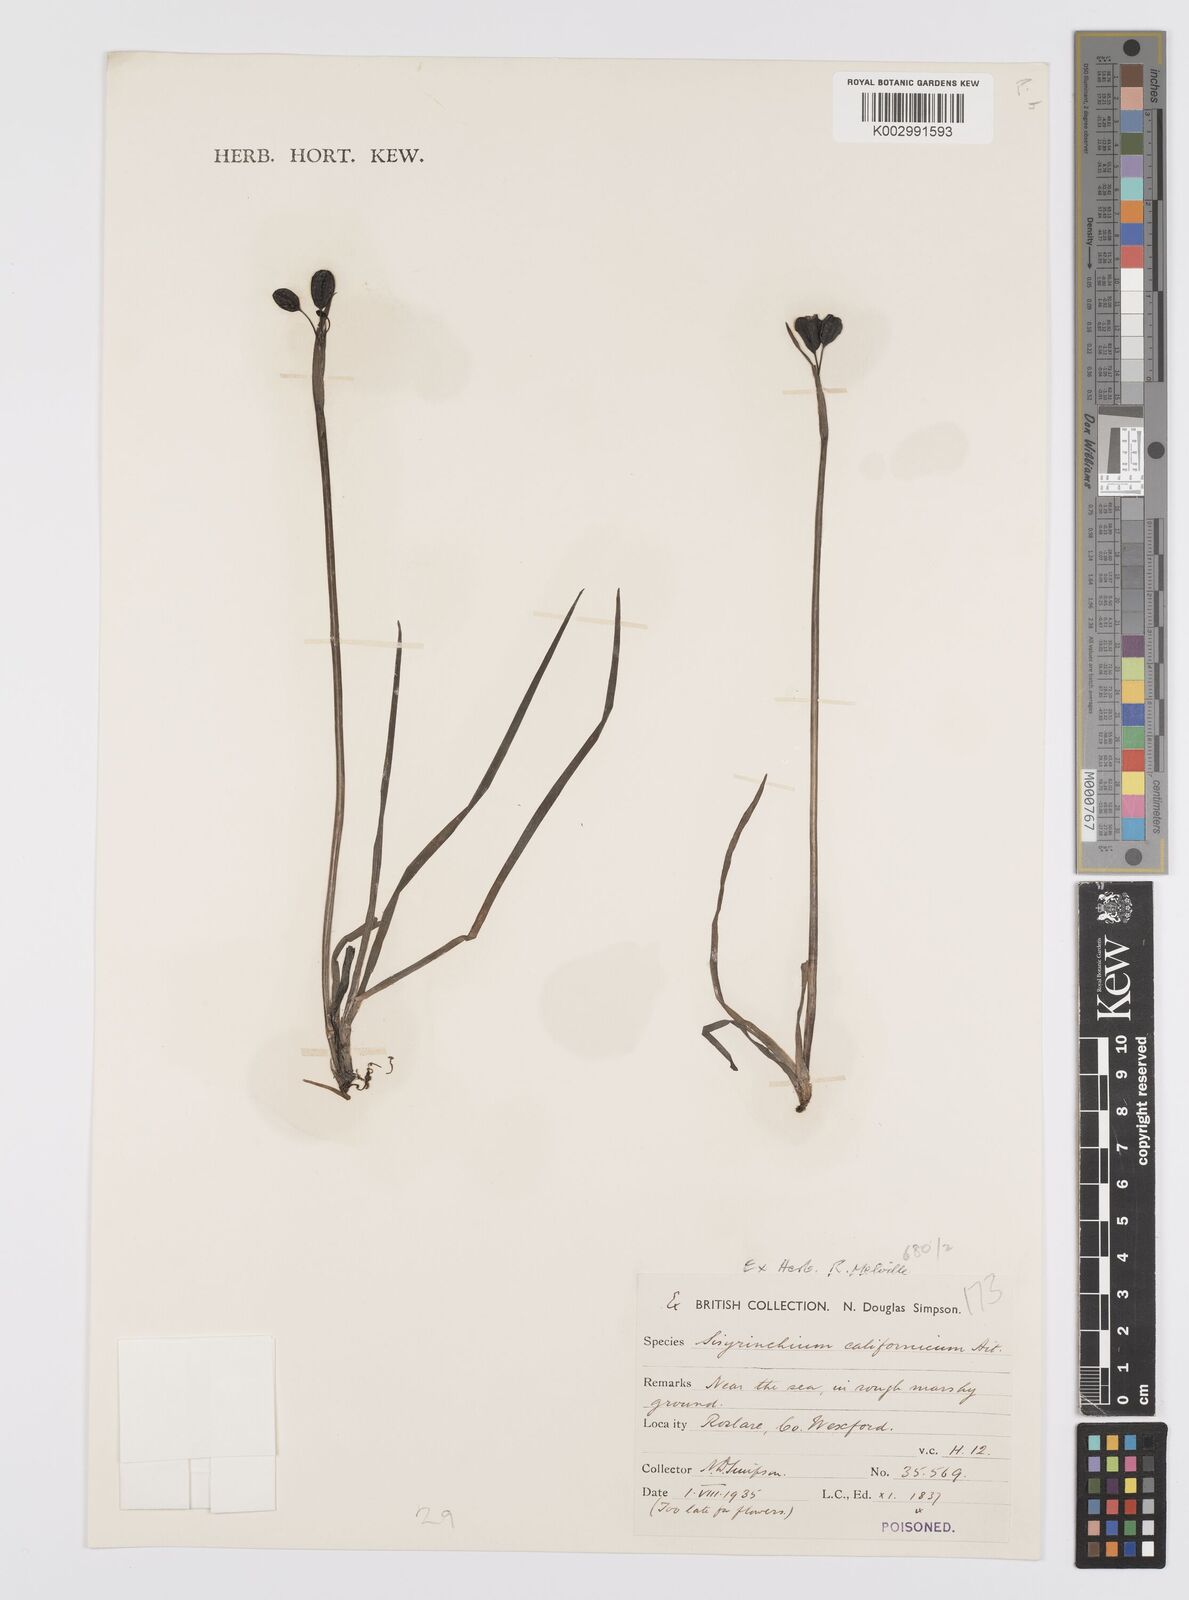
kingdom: Plantae
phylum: Tracheophyta
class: Liliopsida
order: Asparagales
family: Iridaceae
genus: Sisyrinchium
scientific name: Sisyrinchium californicum
